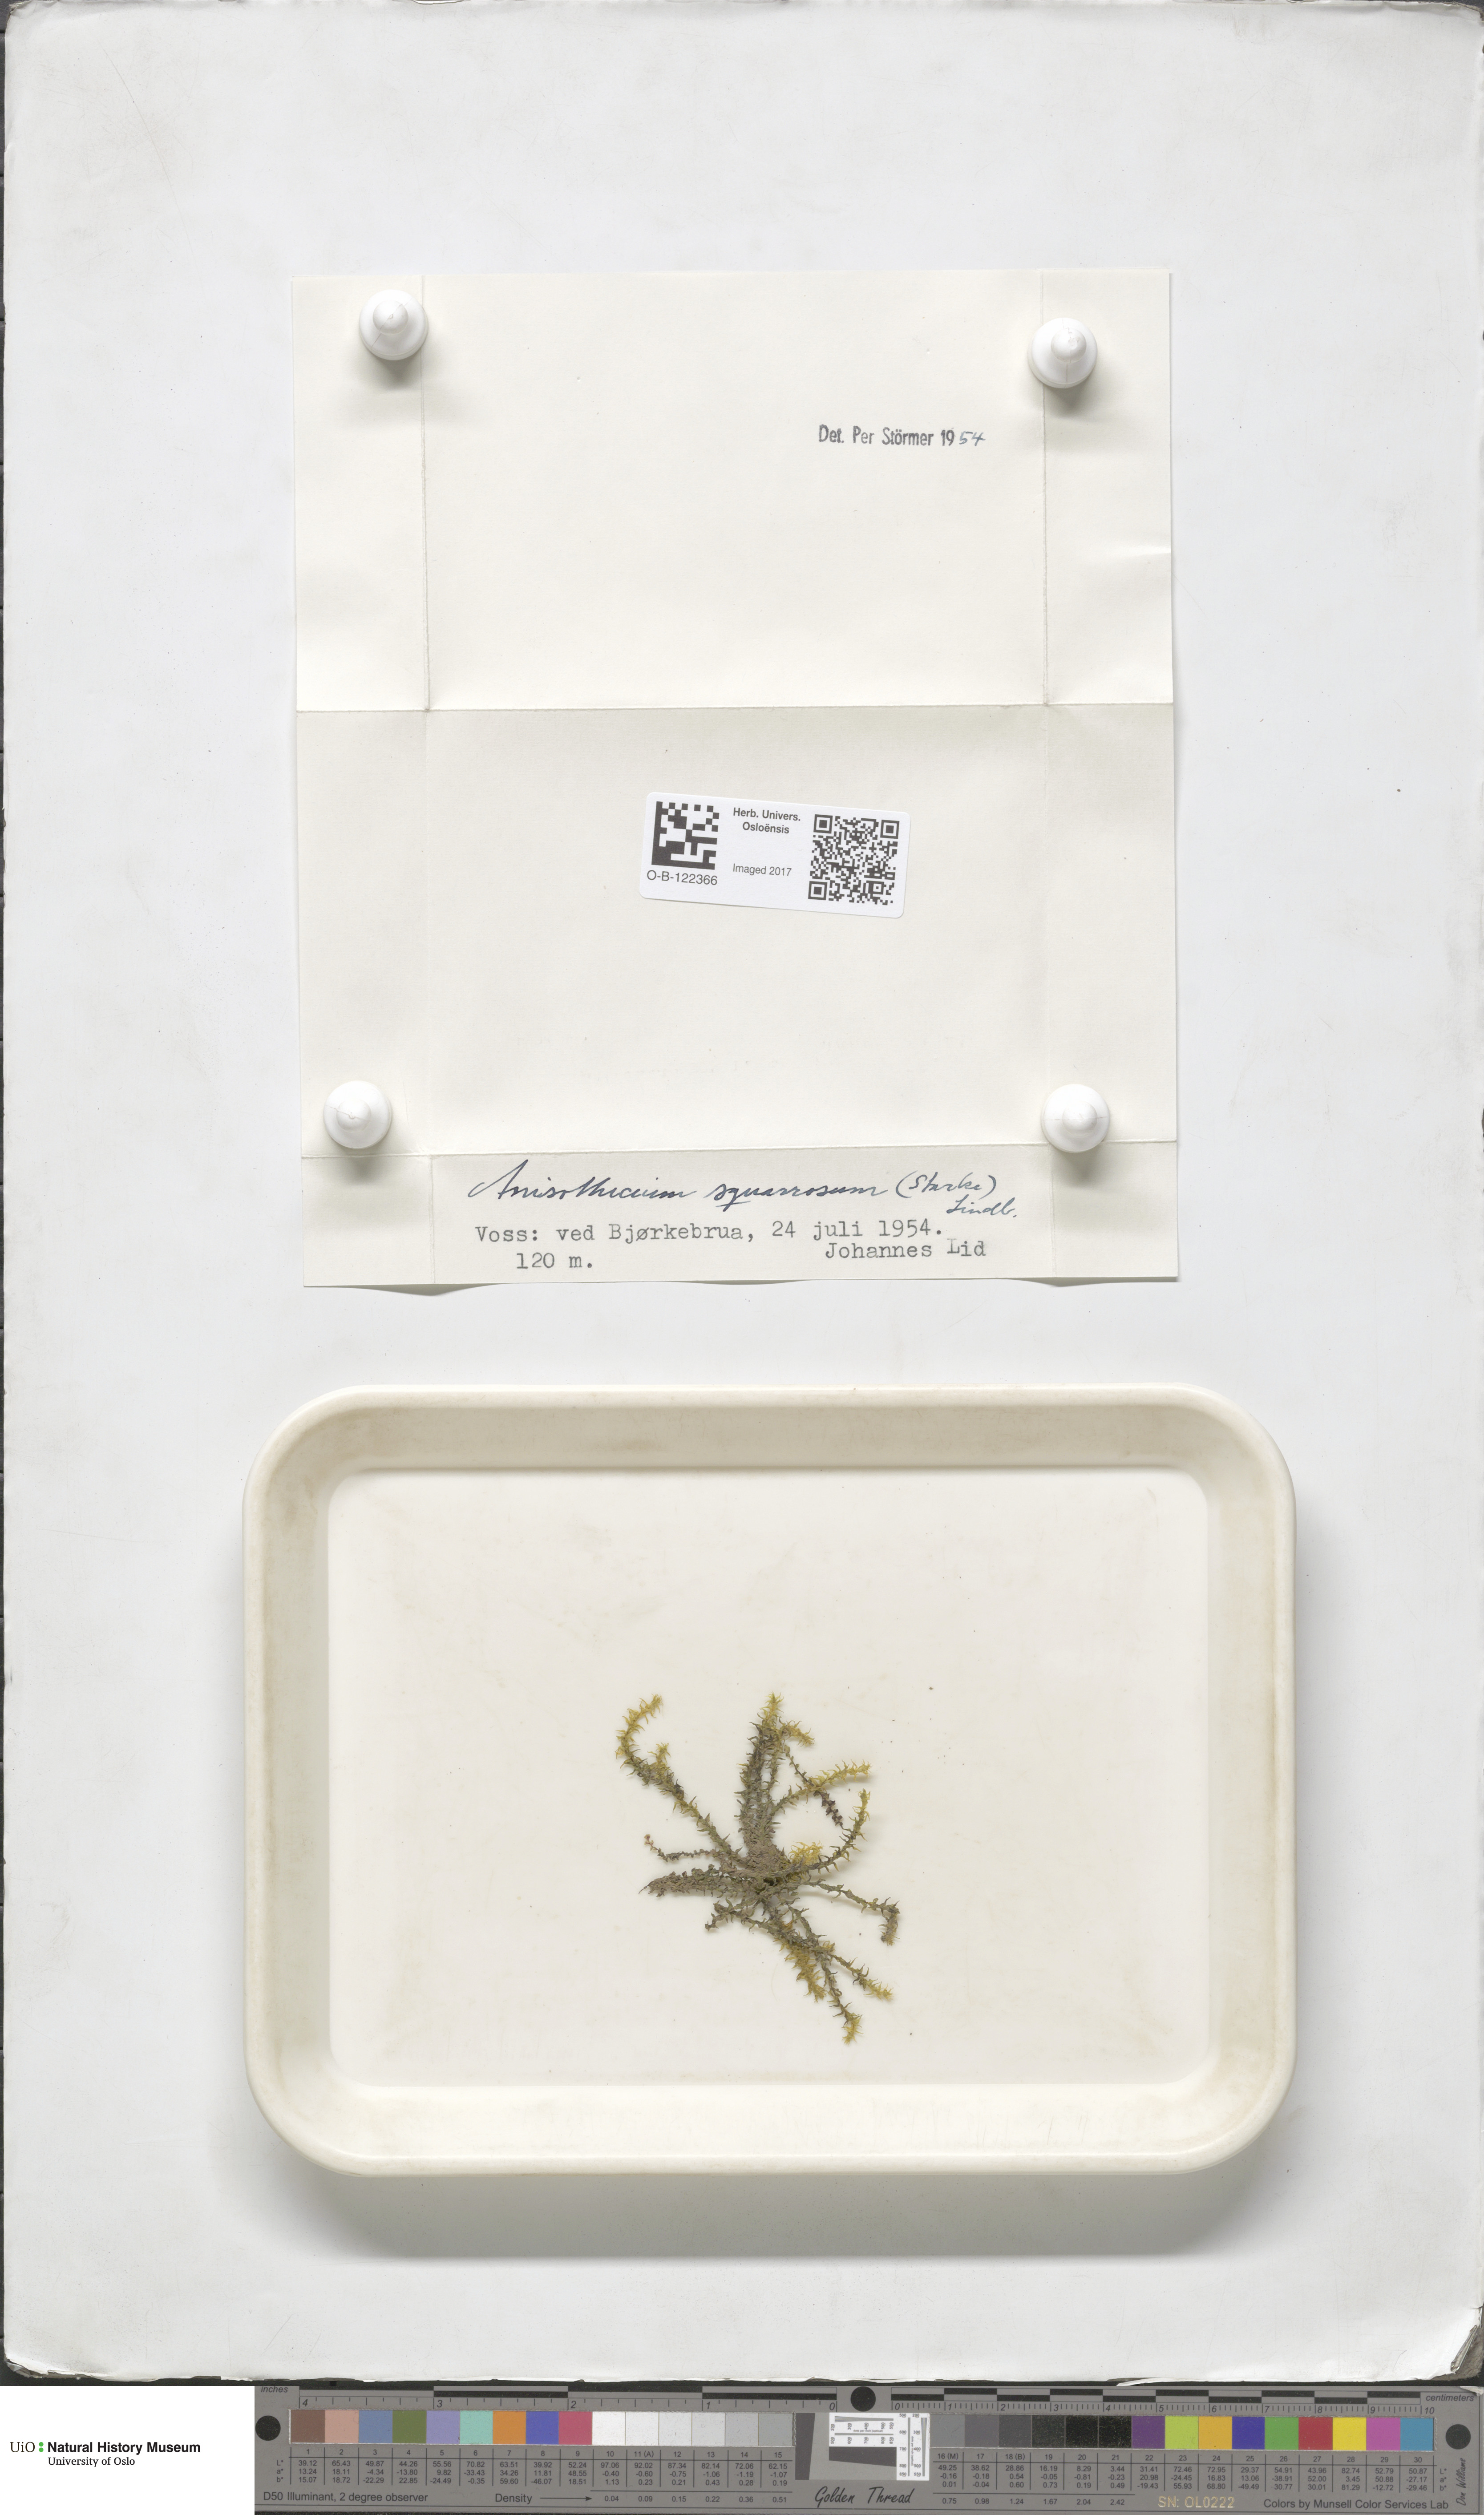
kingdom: Plantae
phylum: Bryophyta
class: Bryopsida
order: Dicranales
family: Aongstroemiaceae
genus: Diobelonella
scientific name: Diobelonella palustris
